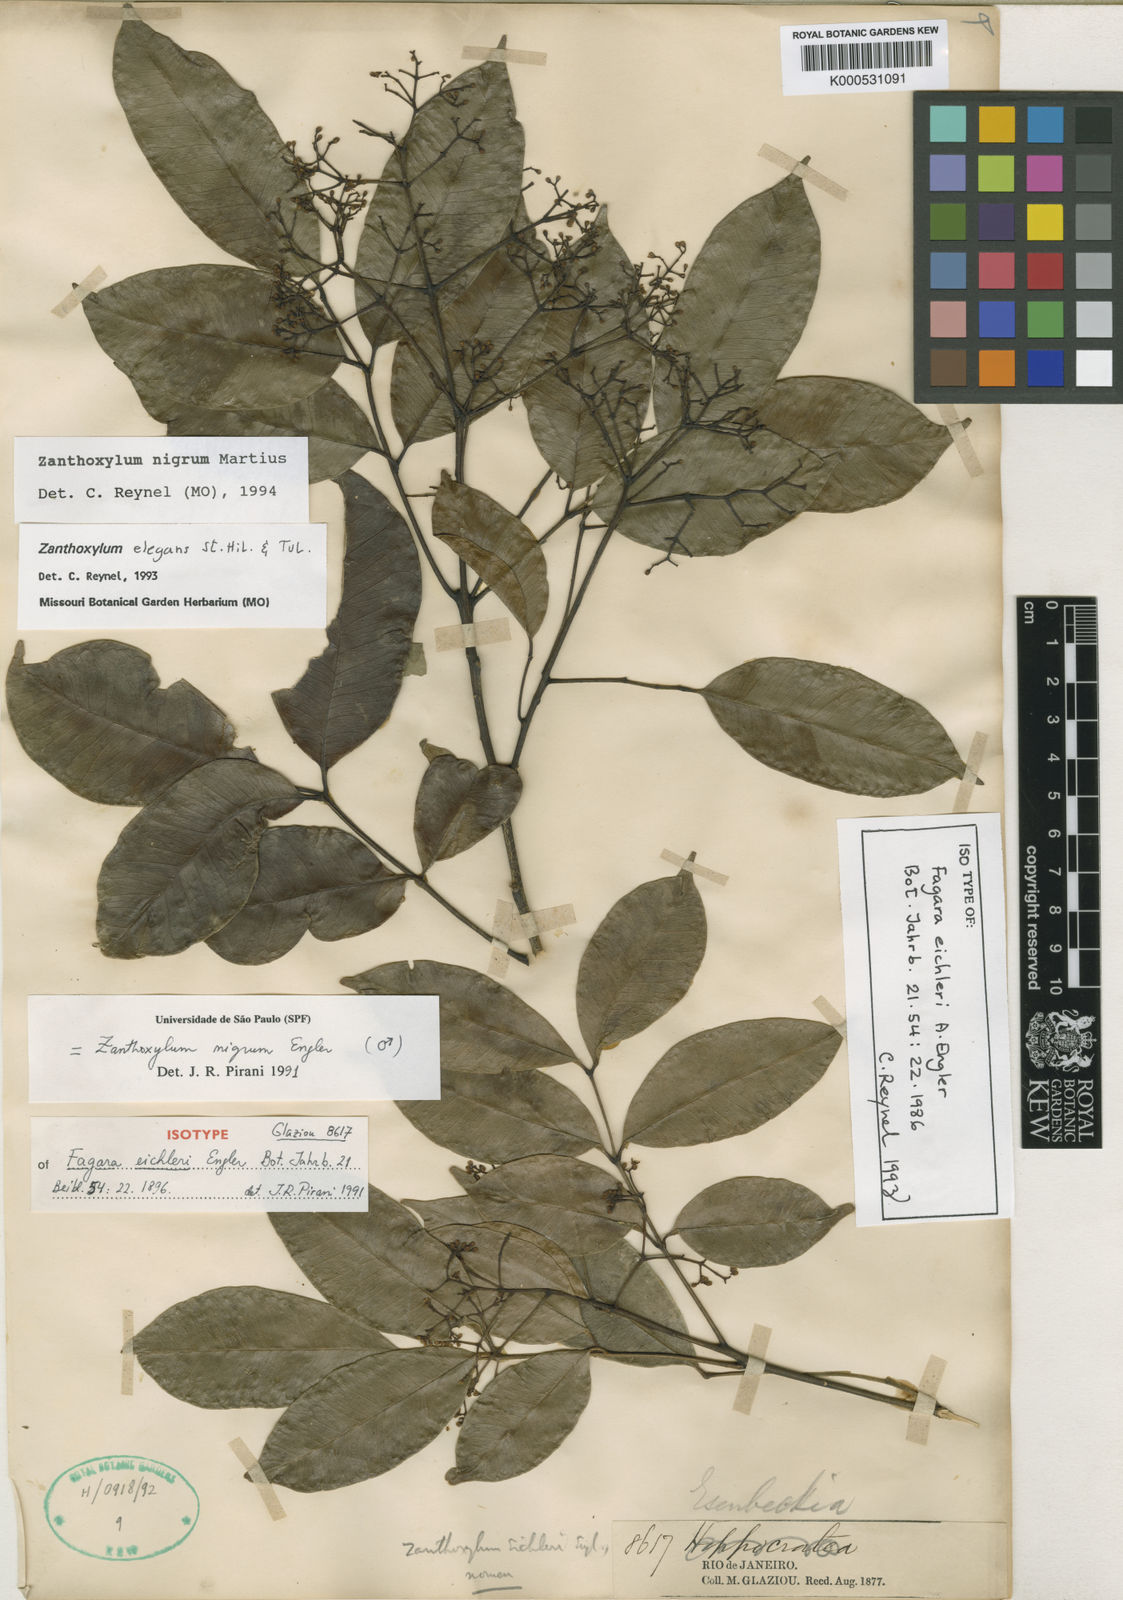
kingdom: Plantae
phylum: Tracheophyta
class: Magnoliopsida
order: Sapindales
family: Rutaceae
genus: Zanthoxylum
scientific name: Zanthoxylum nigrum
